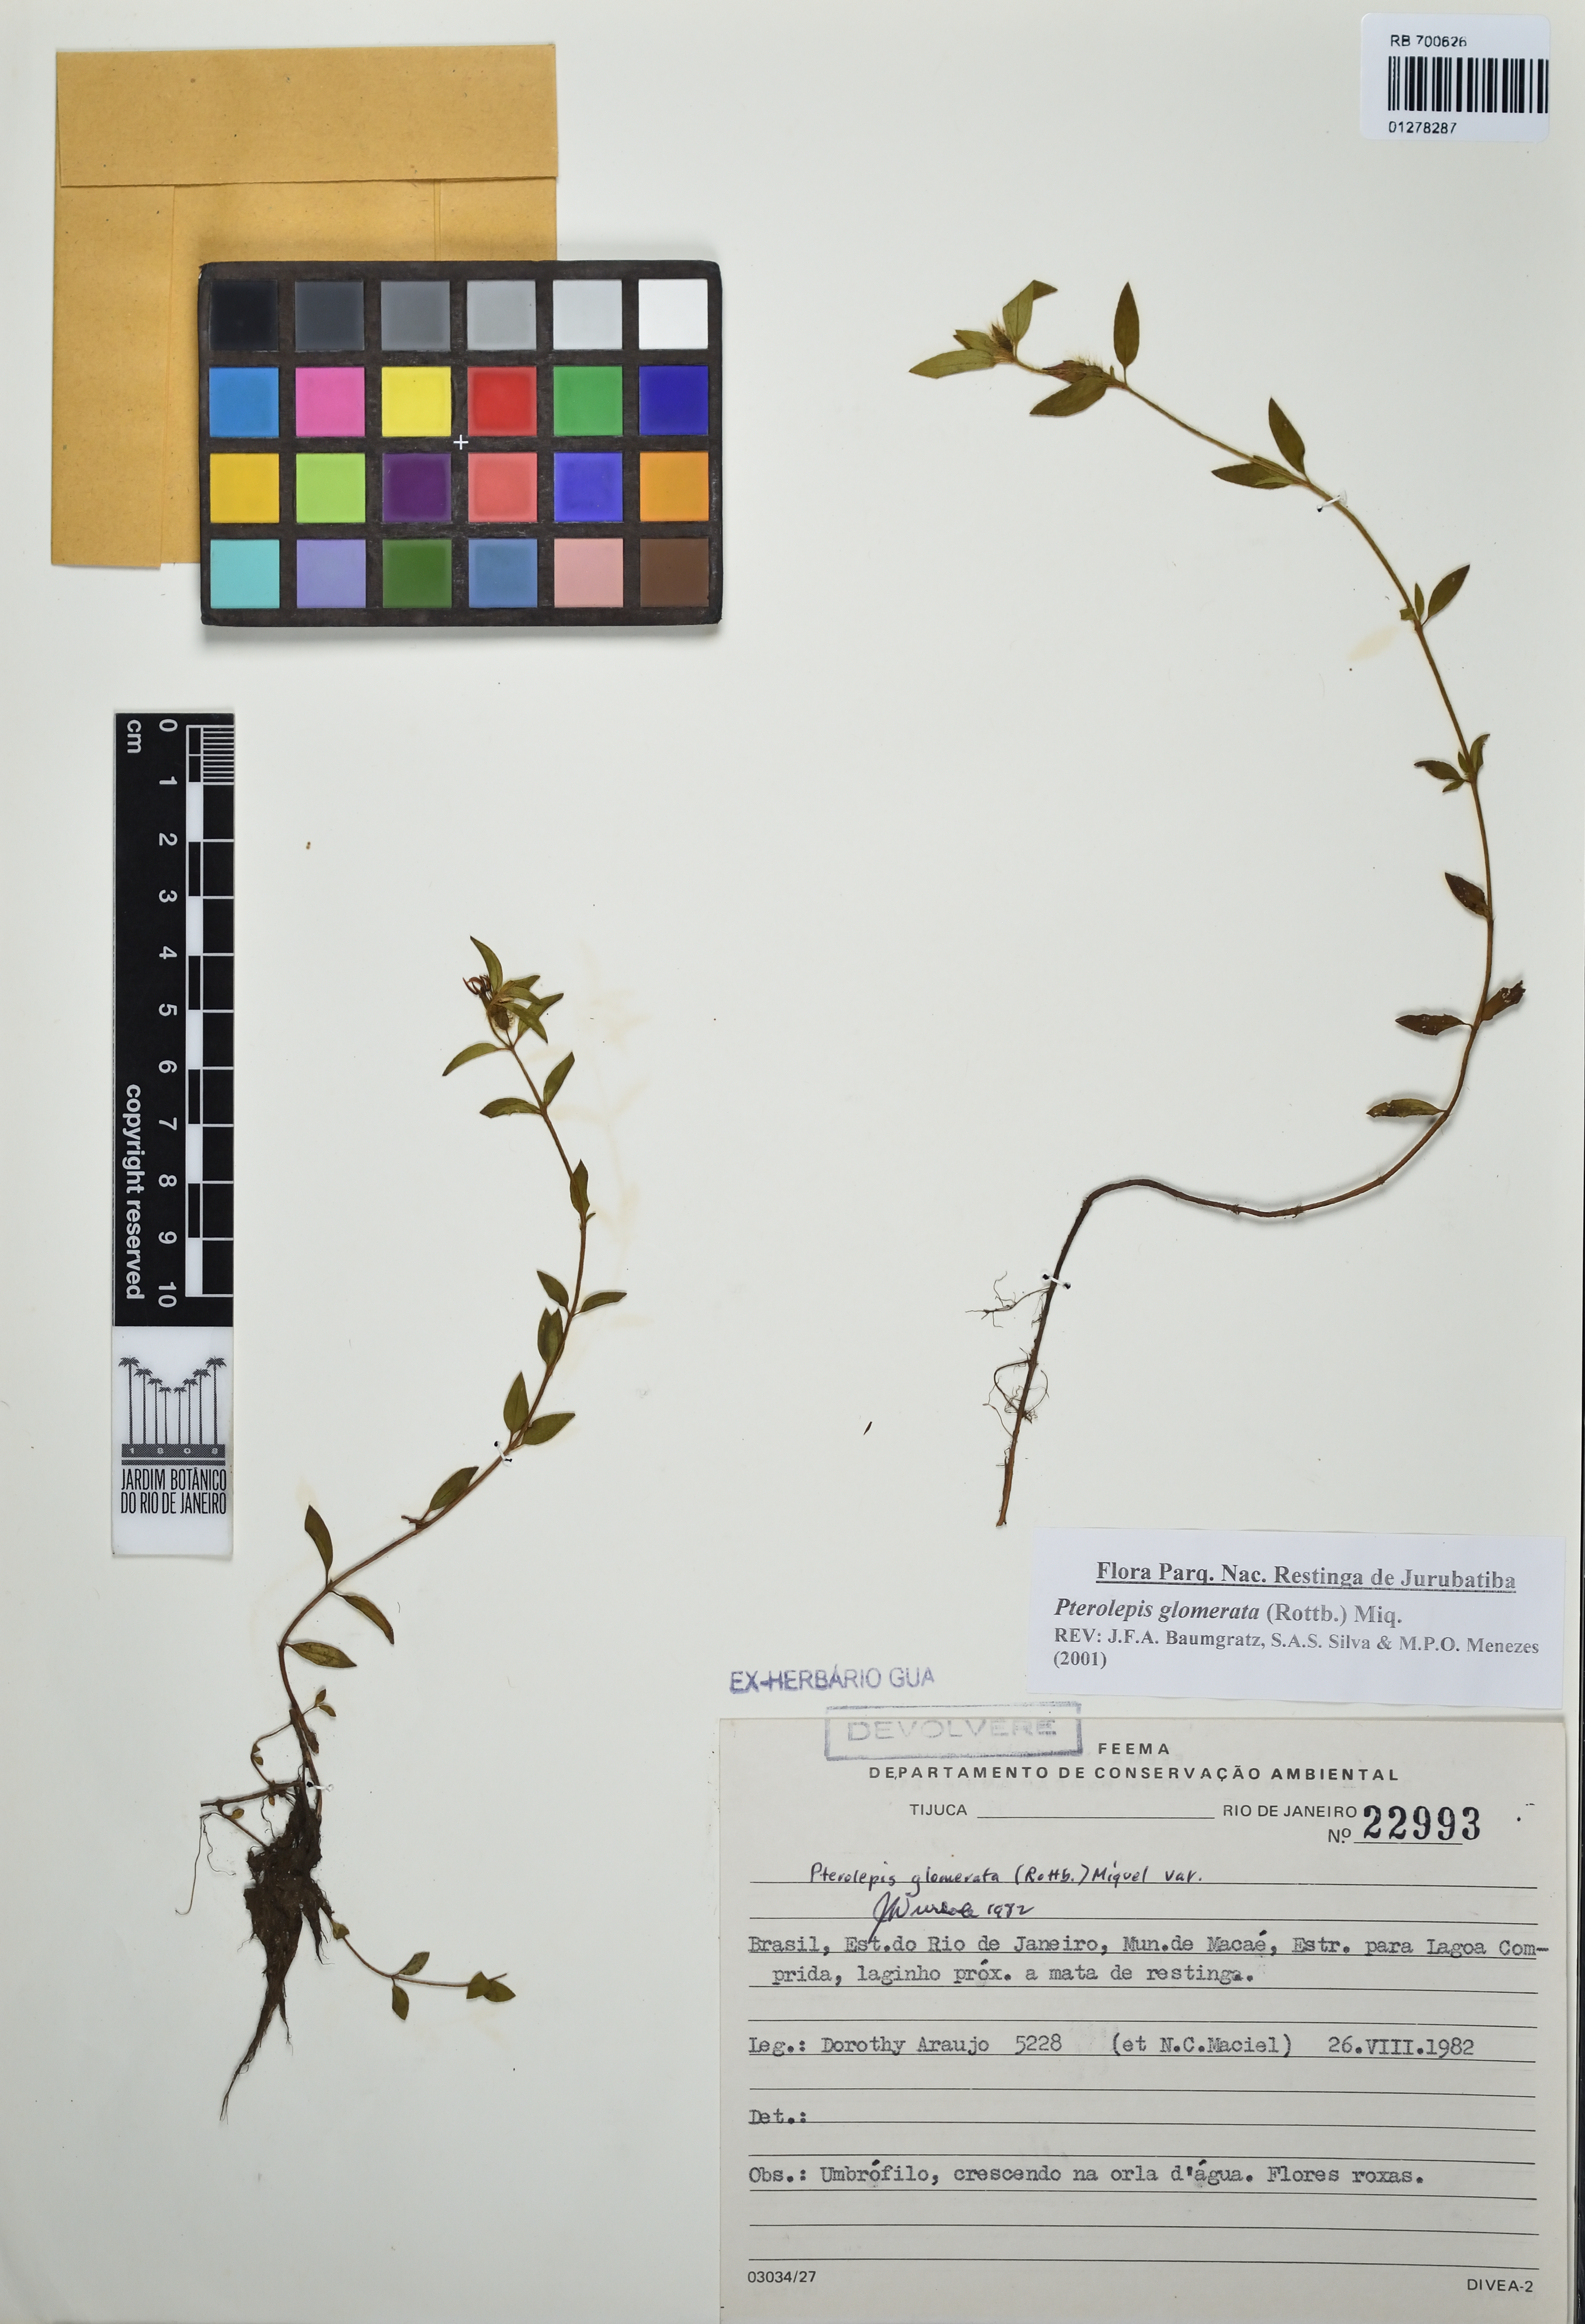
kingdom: Plantae
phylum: Tracheophyta
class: Magnoliopsida
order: Myrtales
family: Melastomataceae
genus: Pterolepis
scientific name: Pterolepis glomerata
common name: False meadowbeauty
